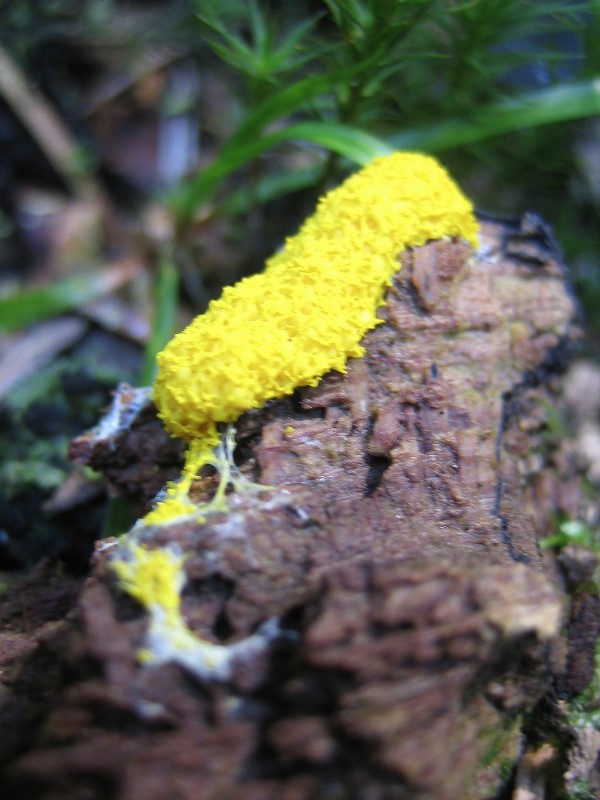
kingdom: Protozoa
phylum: Mycetozoa
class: Myxomycetes
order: Physarales
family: Physaraceae
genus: Fuligo
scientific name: Fuligo septica
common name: gul troldsmør
